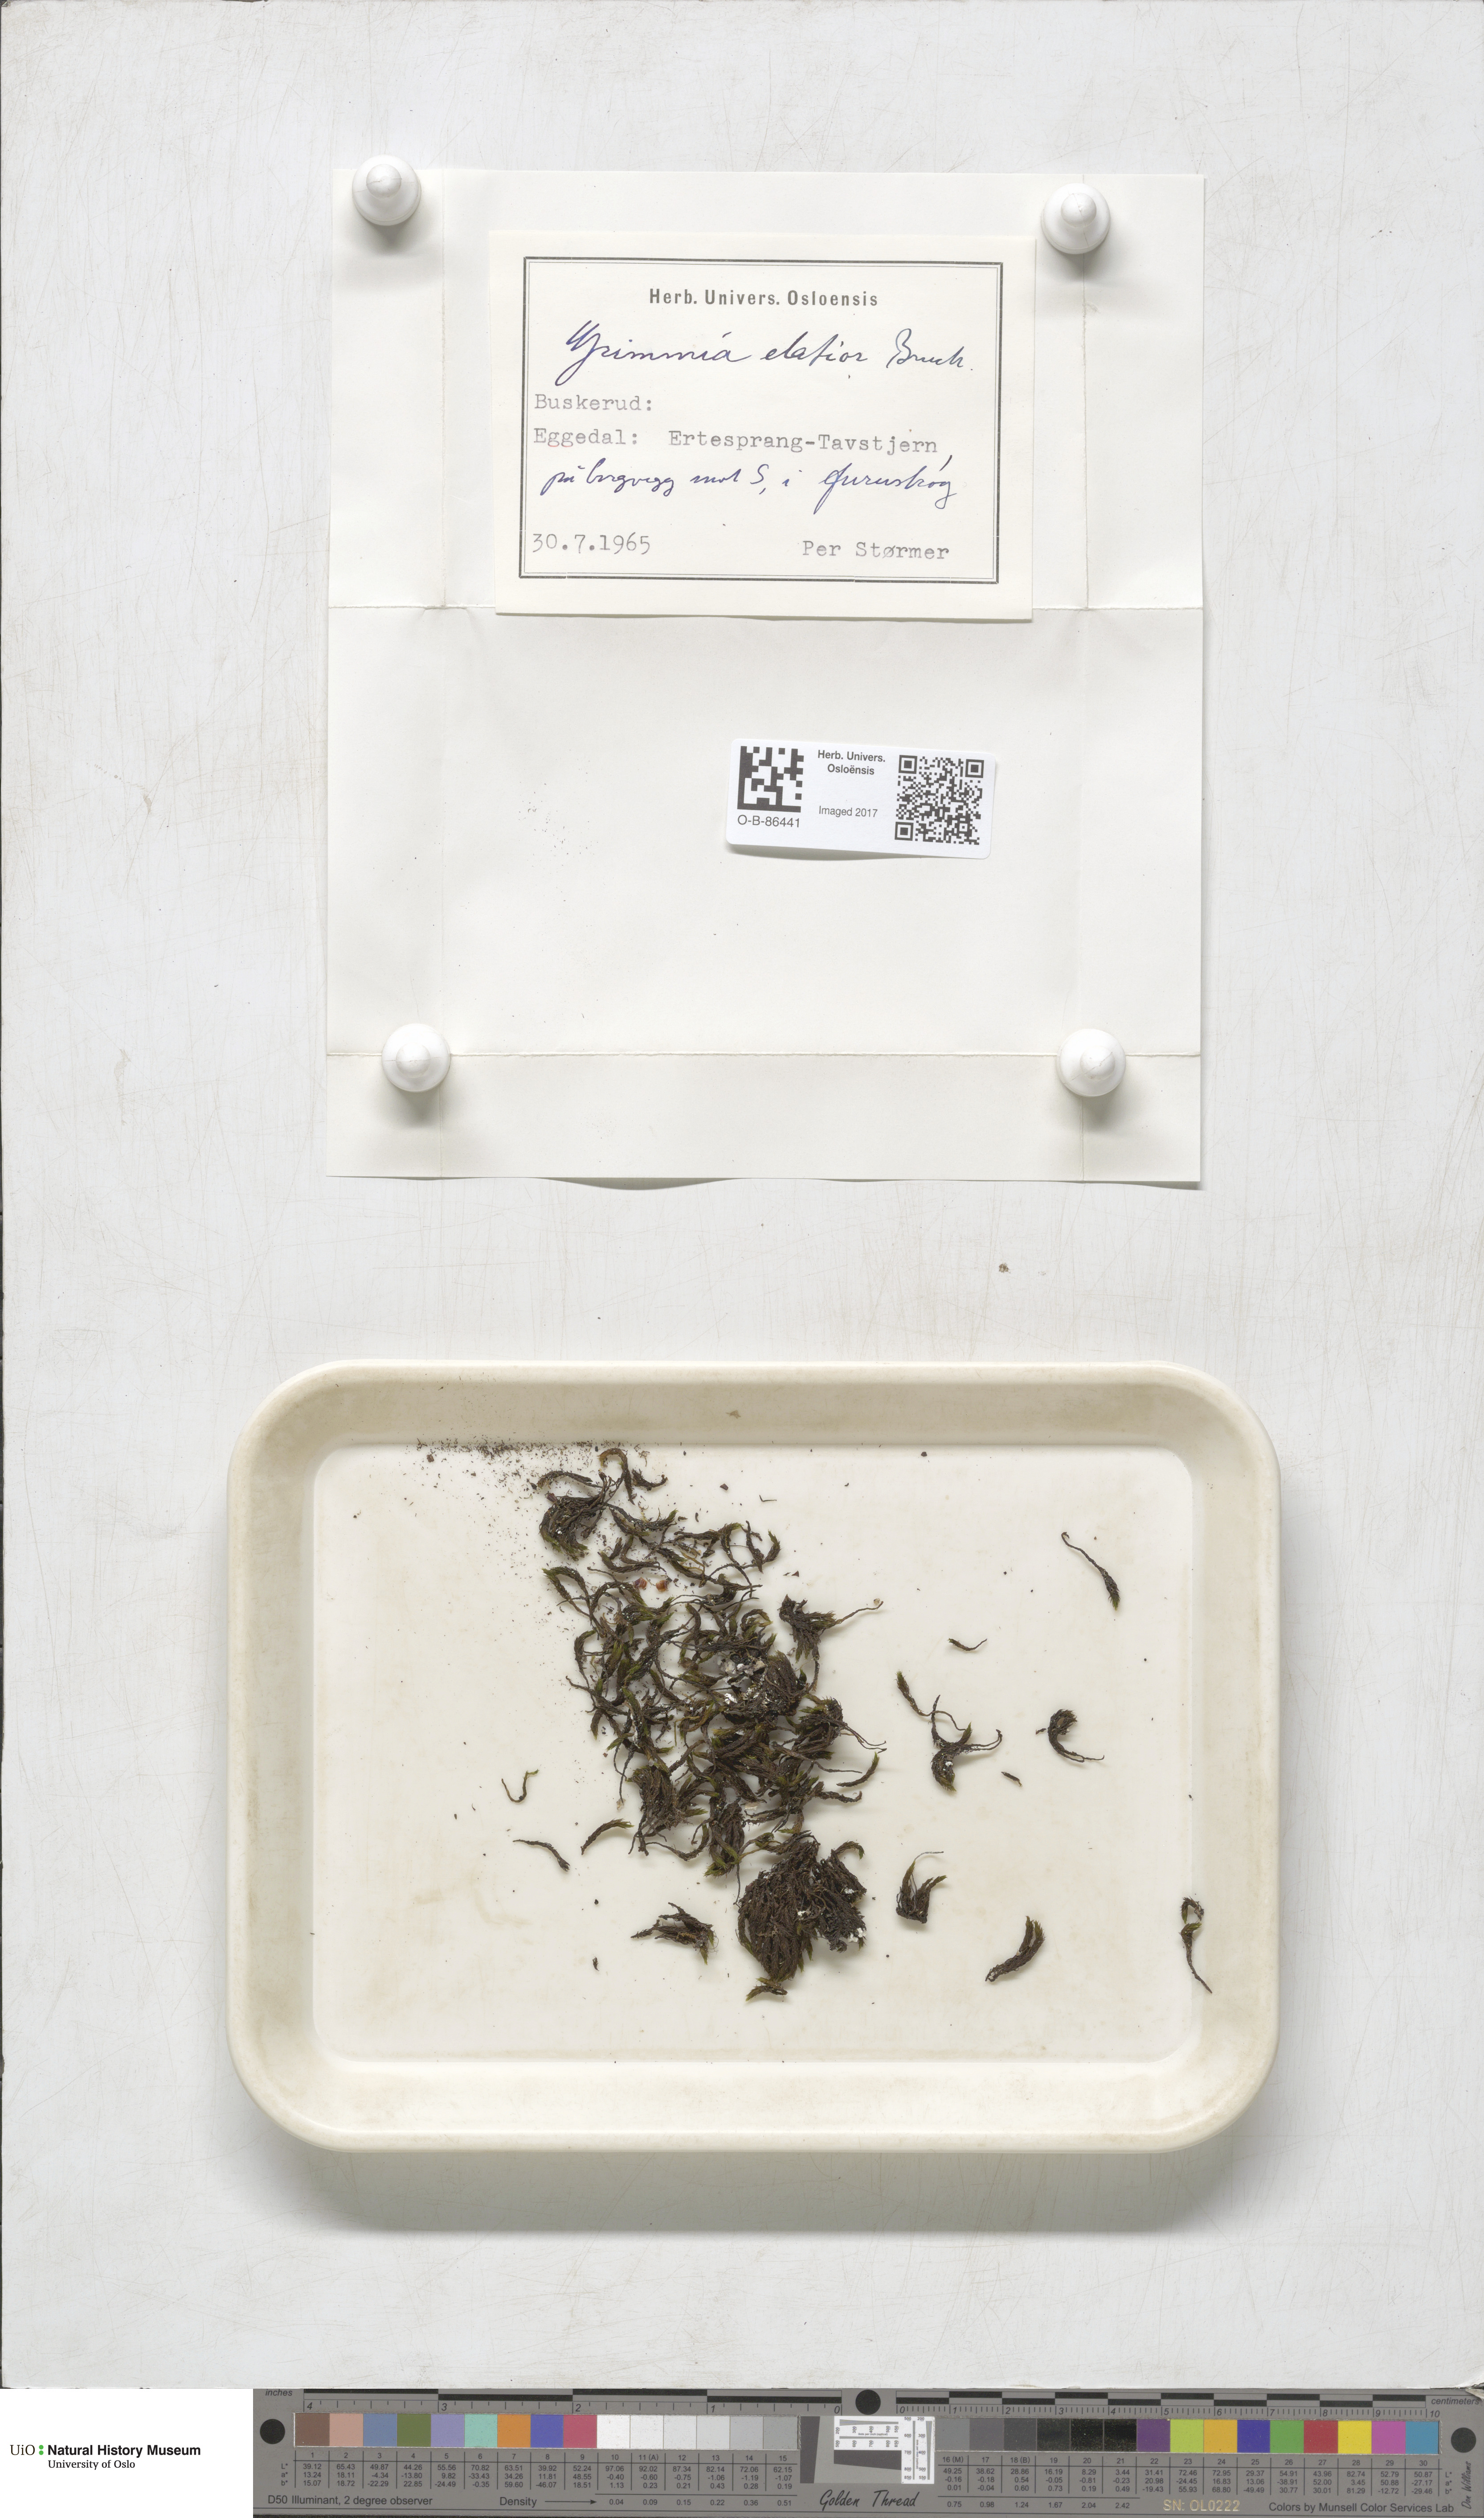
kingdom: Plantae
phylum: Bryophyta
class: Bryopsida
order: Grimmiales
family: Grimmiaceae
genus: Grimmia
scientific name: Grimmia elatior
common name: Large grimmia
